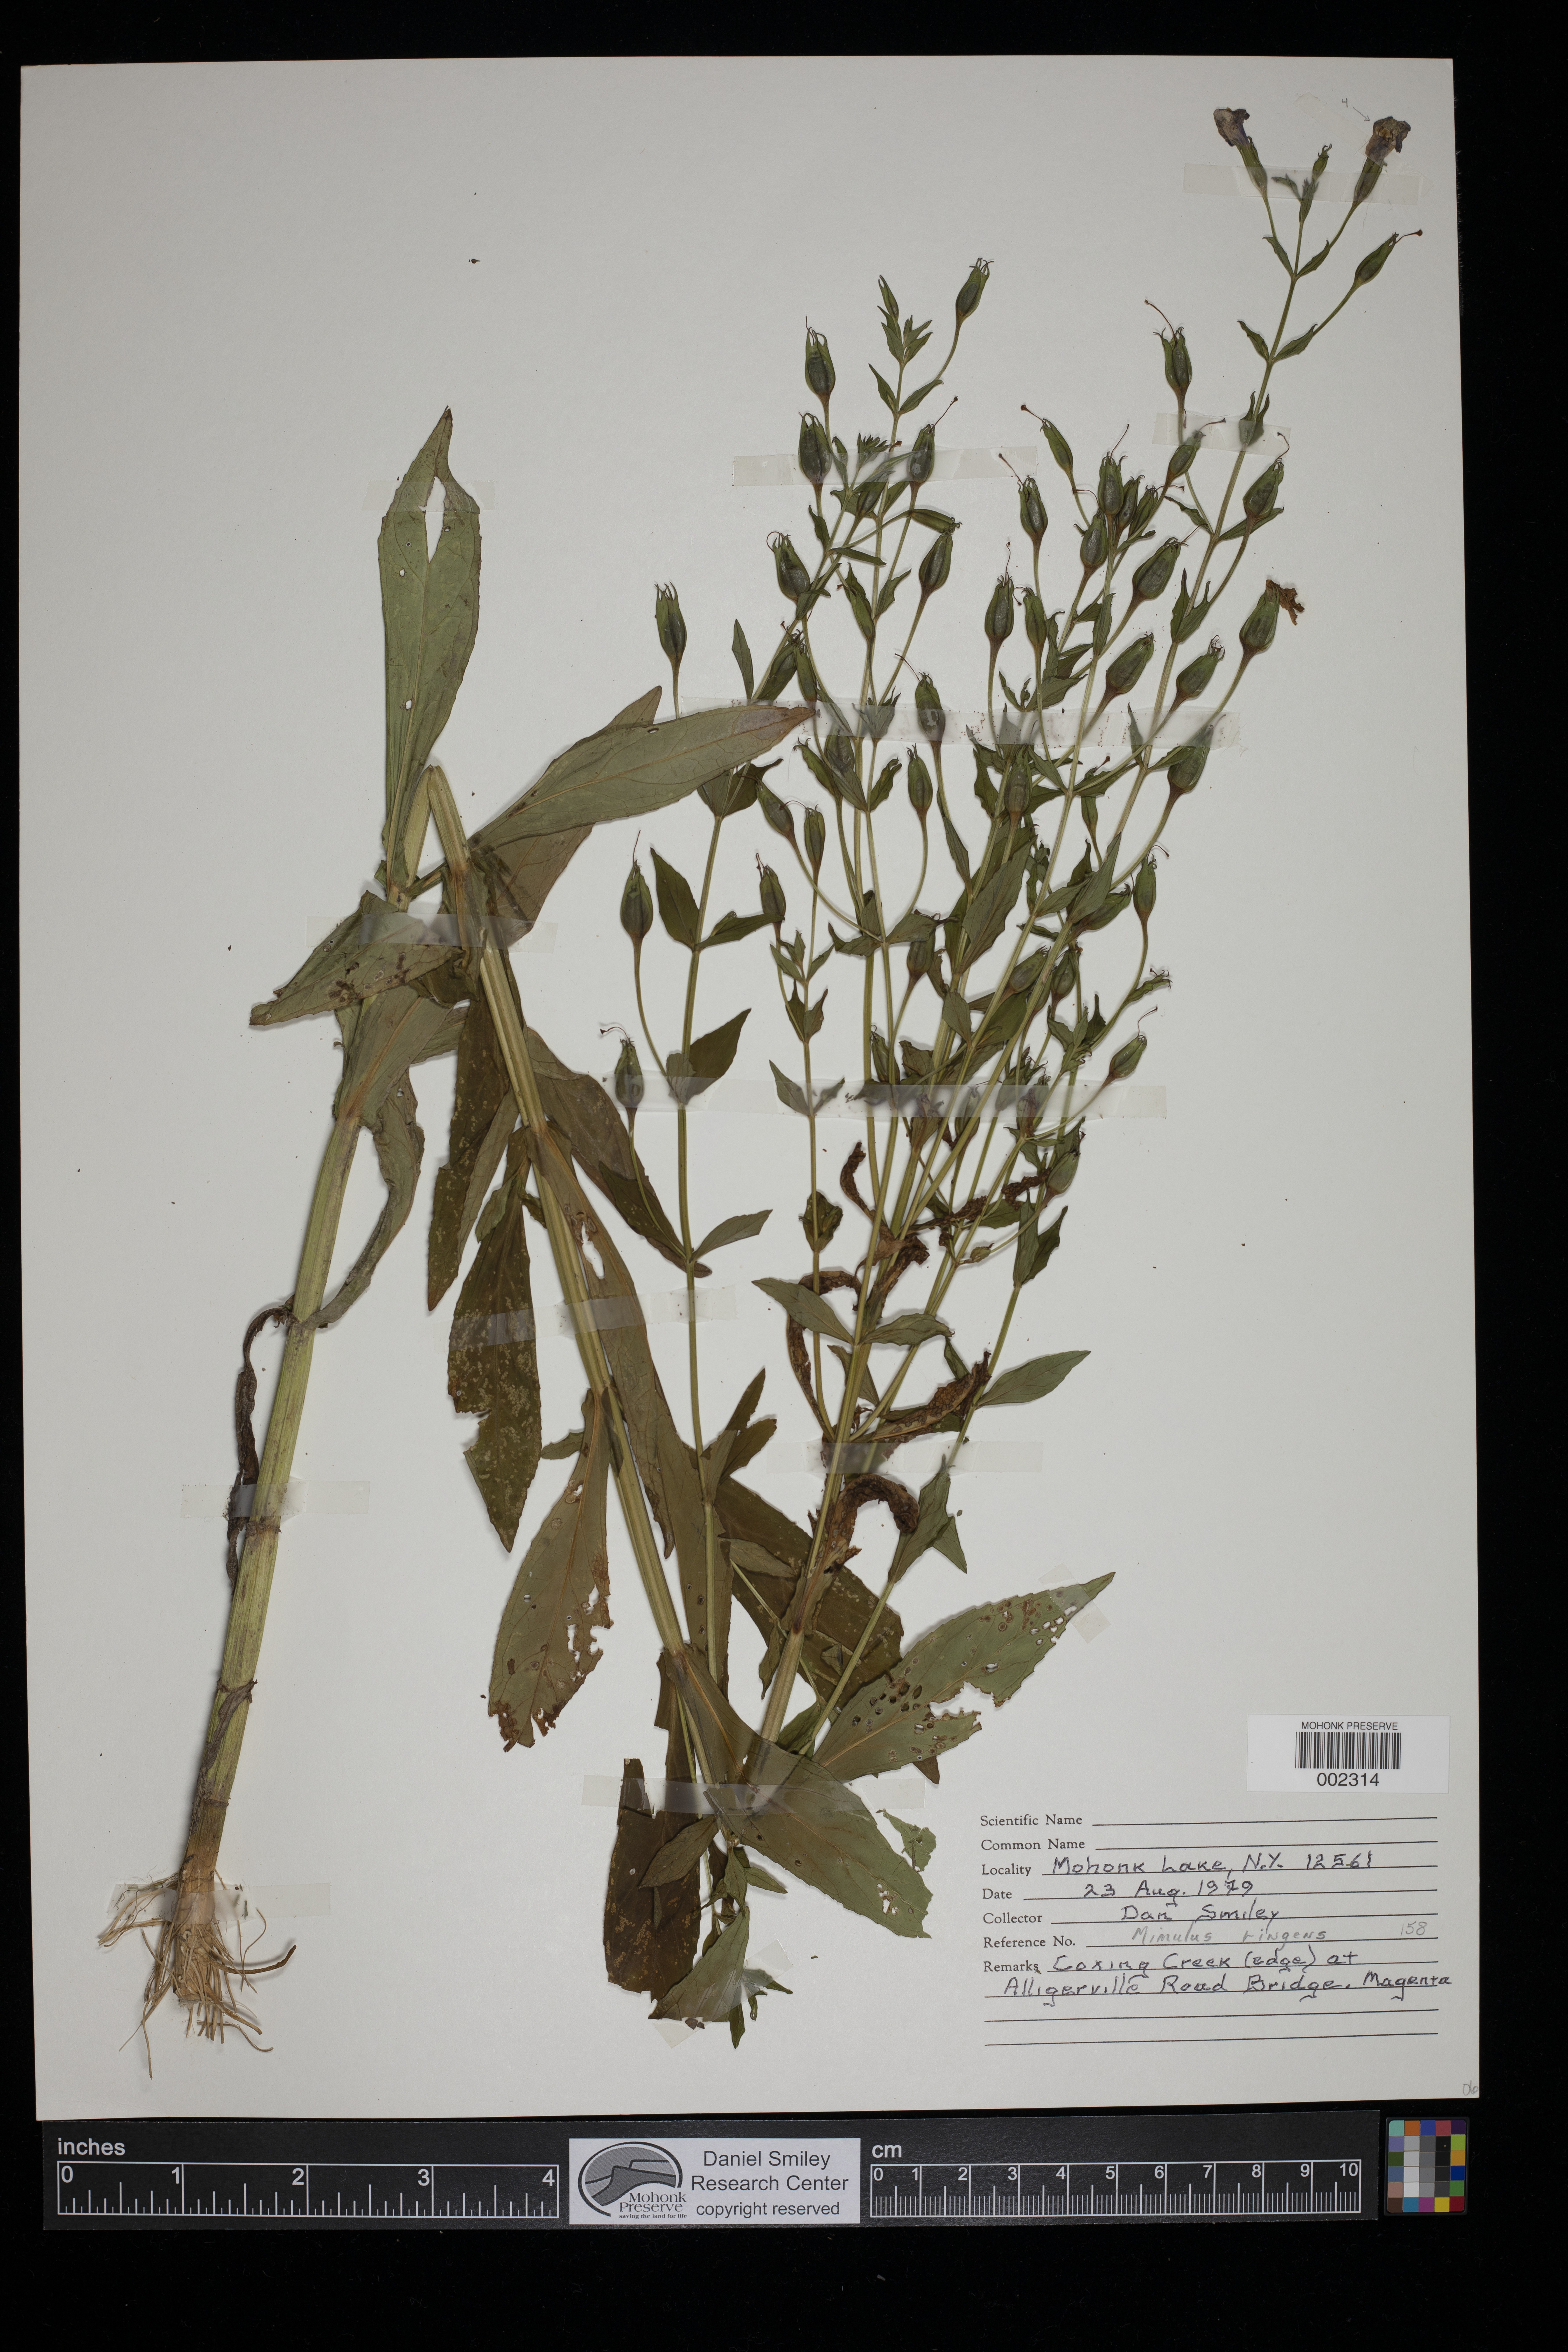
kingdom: Plantae
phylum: Tracheophyta
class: Magnoliopsida
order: Lamiales
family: Phrymaceae
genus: Mimulus
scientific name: Mimulus ringens
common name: Allegheny monkeyflower
